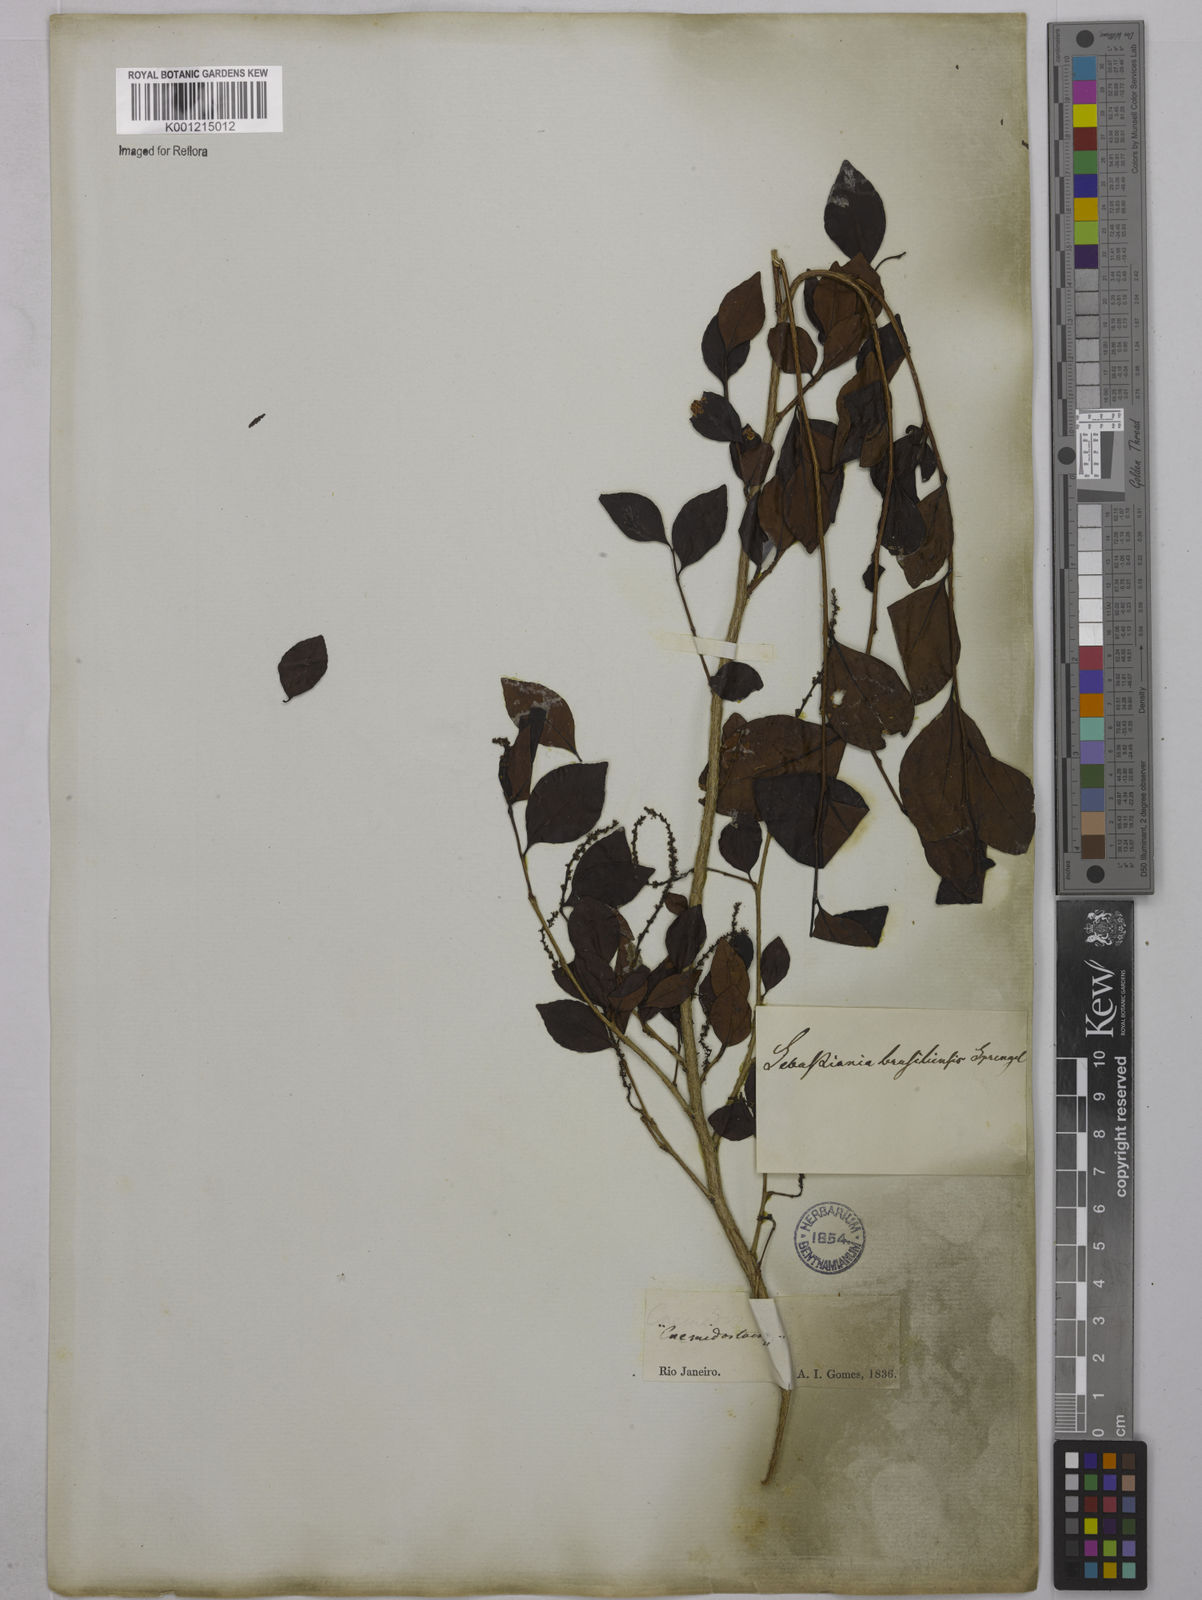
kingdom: Plantae
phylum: Tracheophyta
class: Magnoliopsida
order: Malpighiales
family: Euphorbiaceae
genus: Sebastiania
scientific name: Sebastiania brasiliensis
